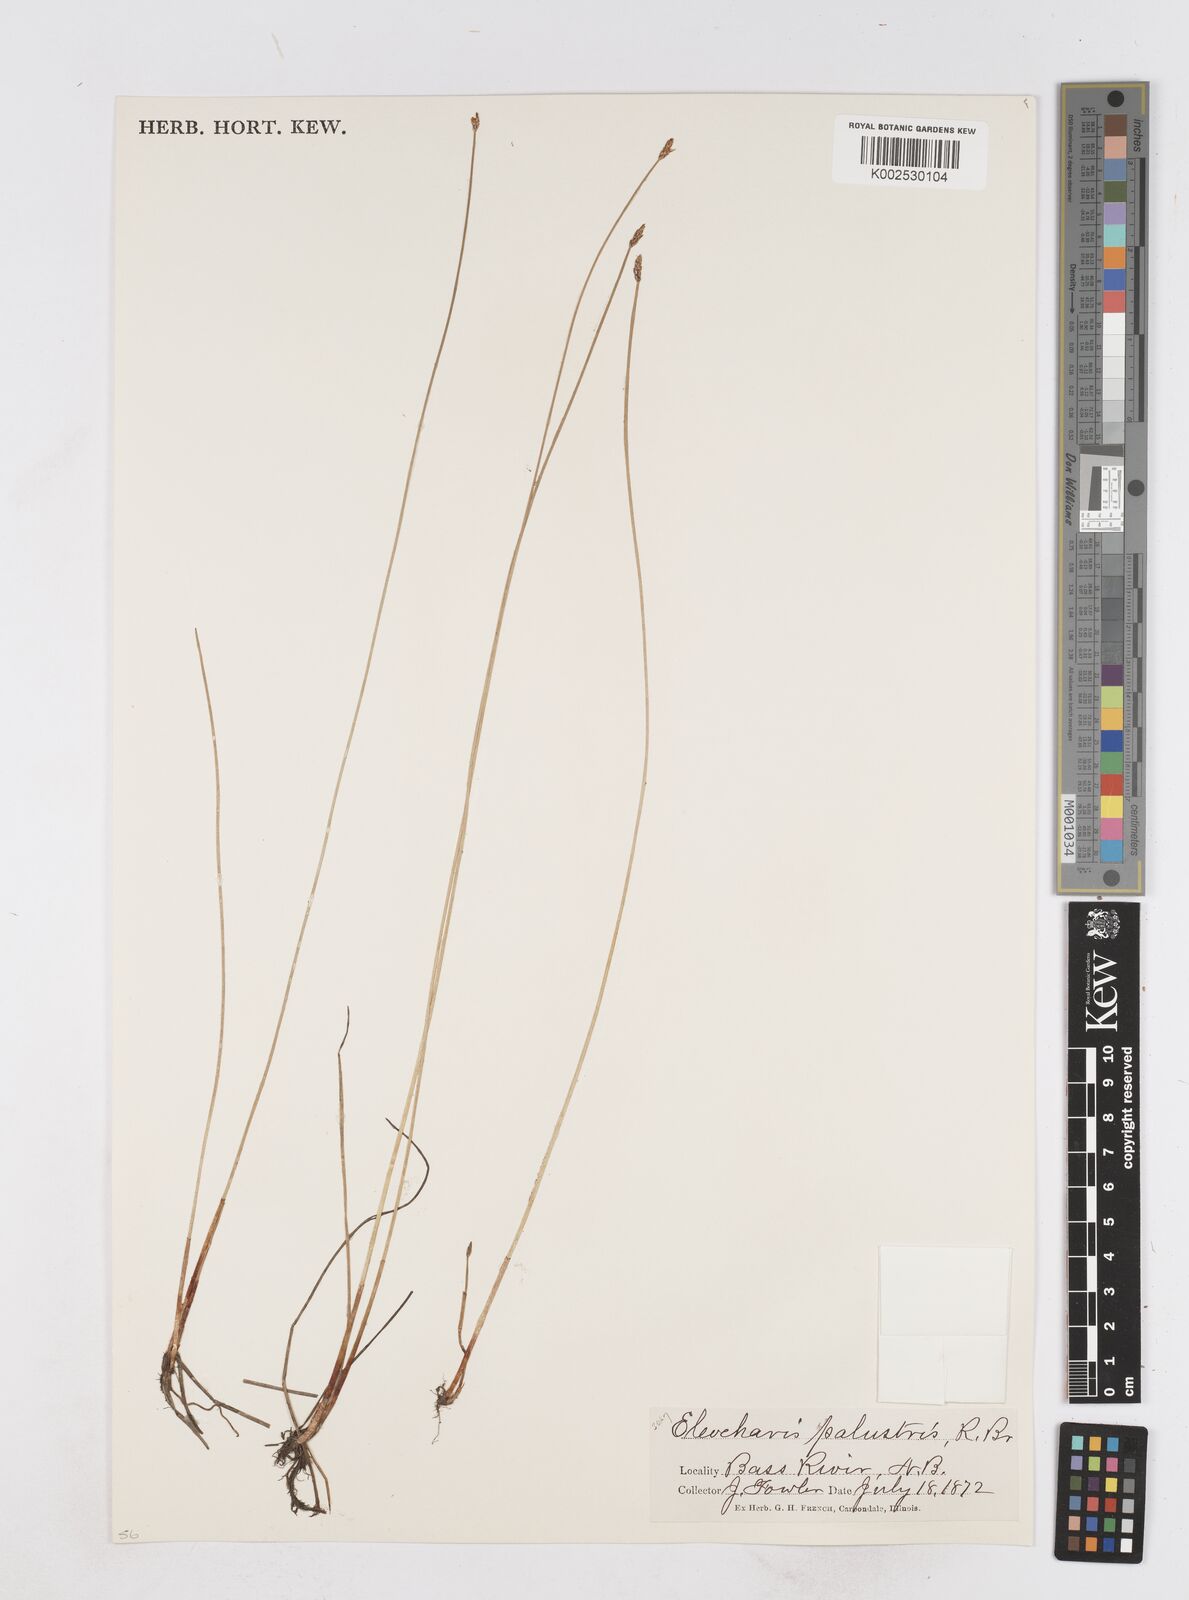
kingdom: Plantae
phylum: Tracheophyta
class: Liliopsida
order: Poales
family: Cyperaceae
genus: Eleocharis
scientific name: Eleocharis palustris
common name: Common spike-rush
